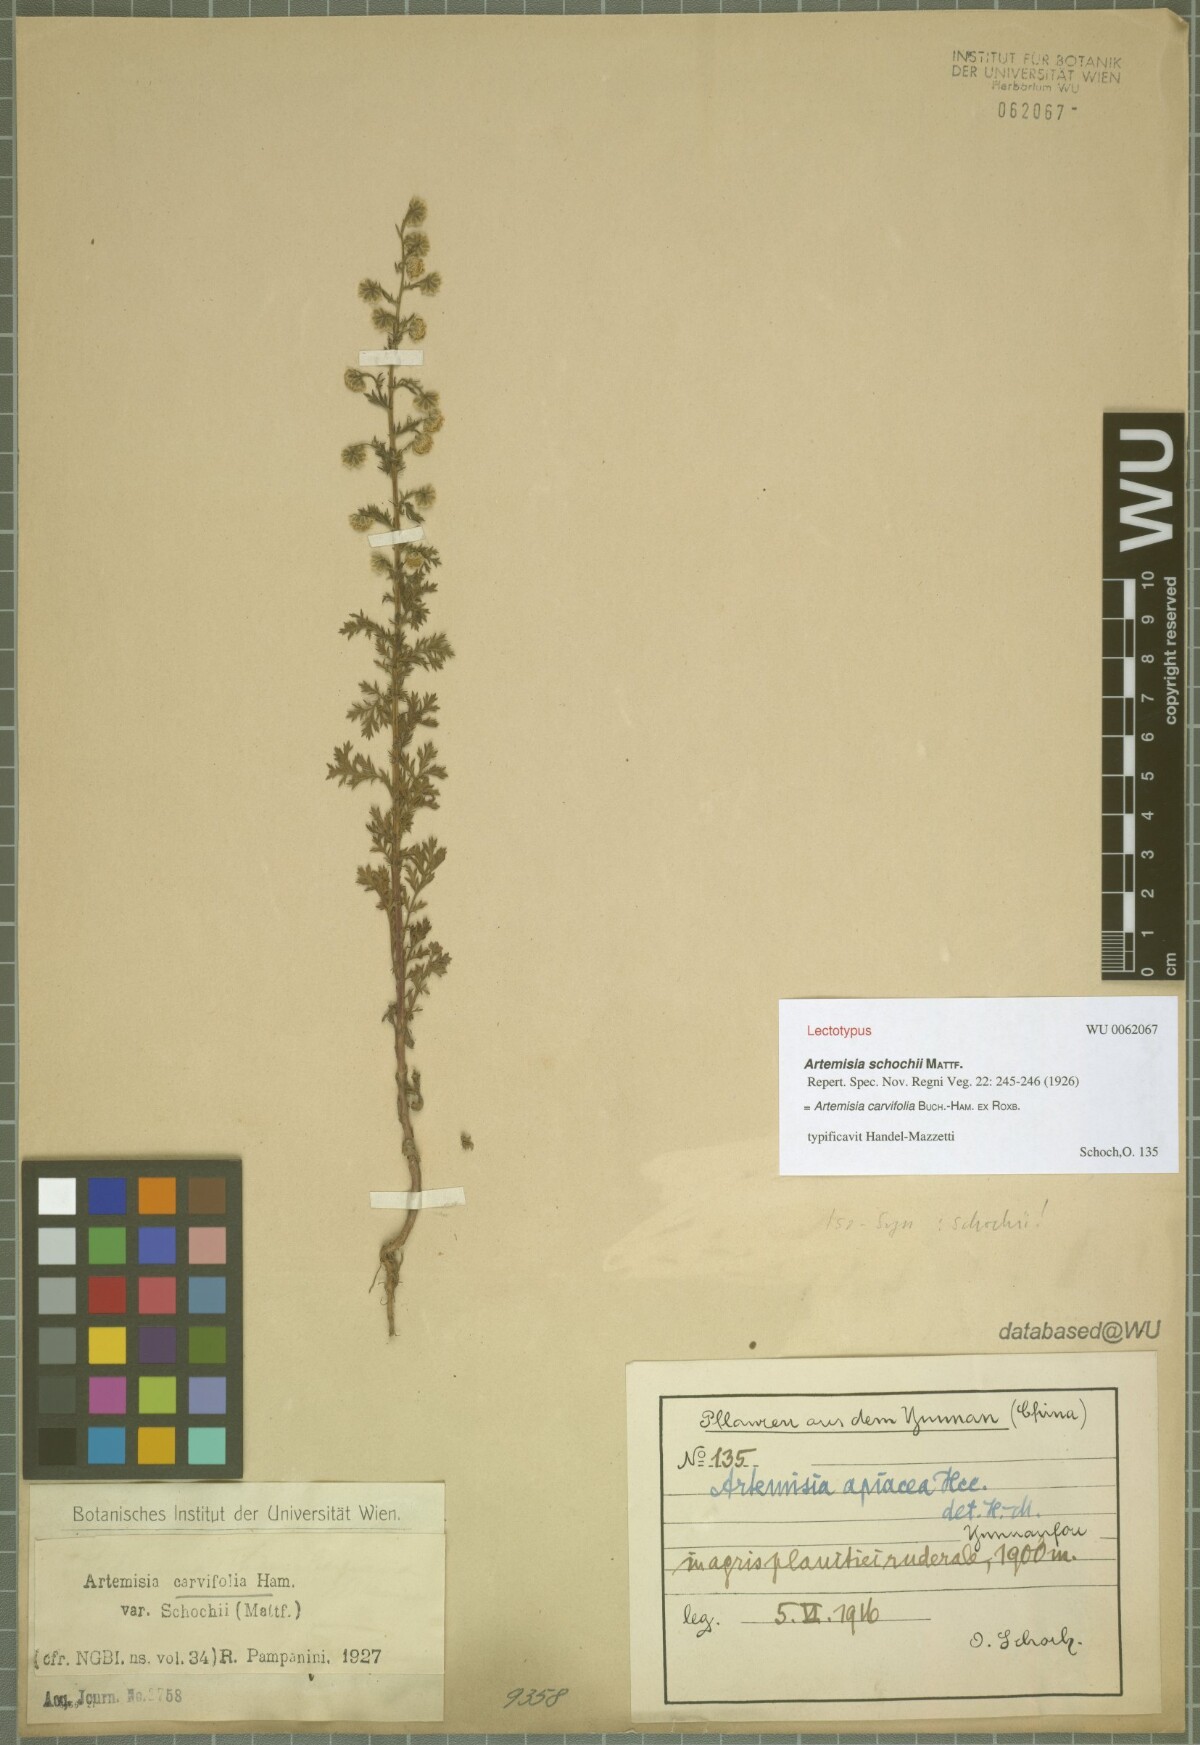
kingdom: Plantae
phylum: Tracheophyta
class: Magnoliopsida
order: Asterales
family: Asteraceae
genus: Artemisia
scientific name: Artemisia caruifolia
